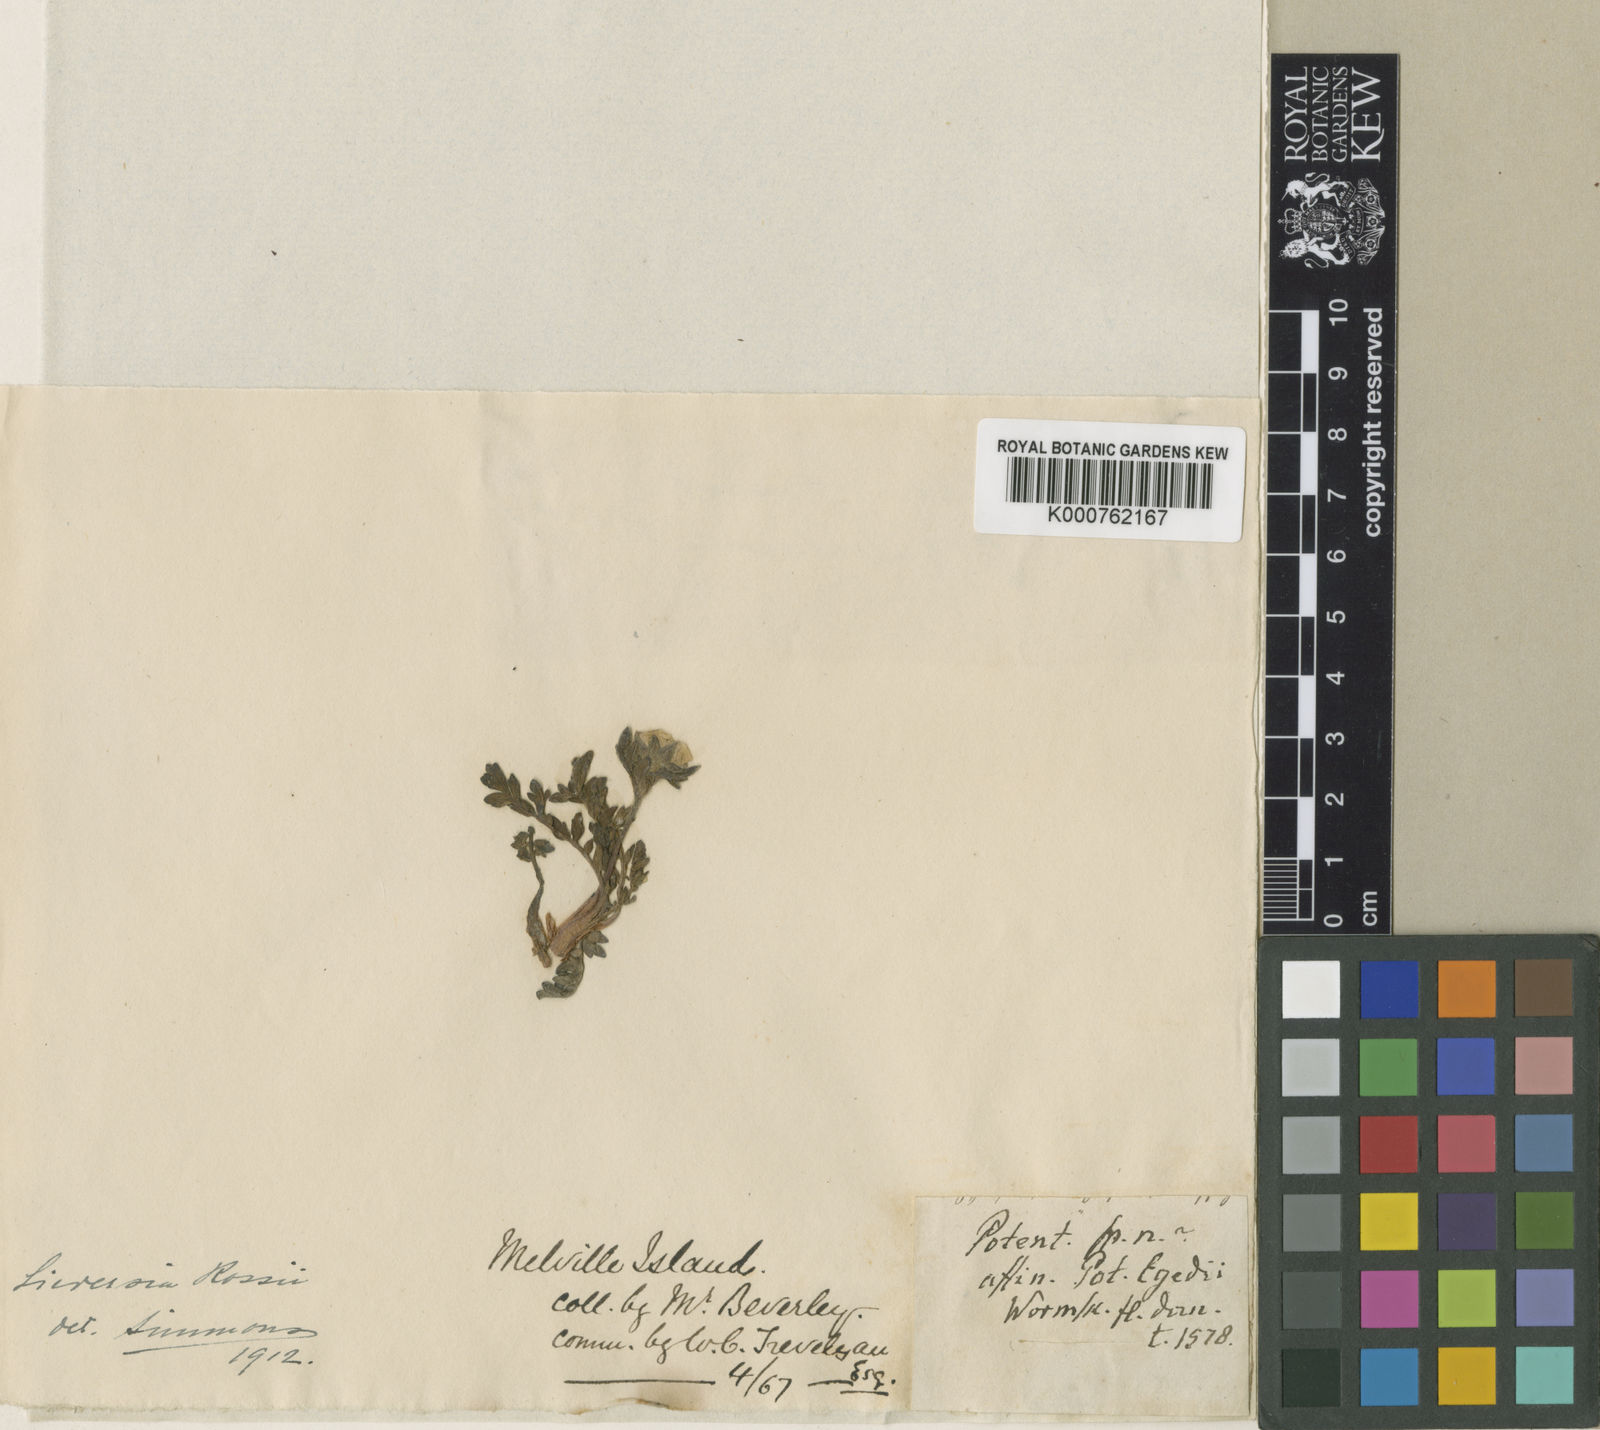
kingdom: Plantae
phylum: Tracheophyta
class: Magnoliopsida
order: Rosales
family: Rosaceae
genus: Geum
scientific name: Geum rossii
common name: Alpine avens
